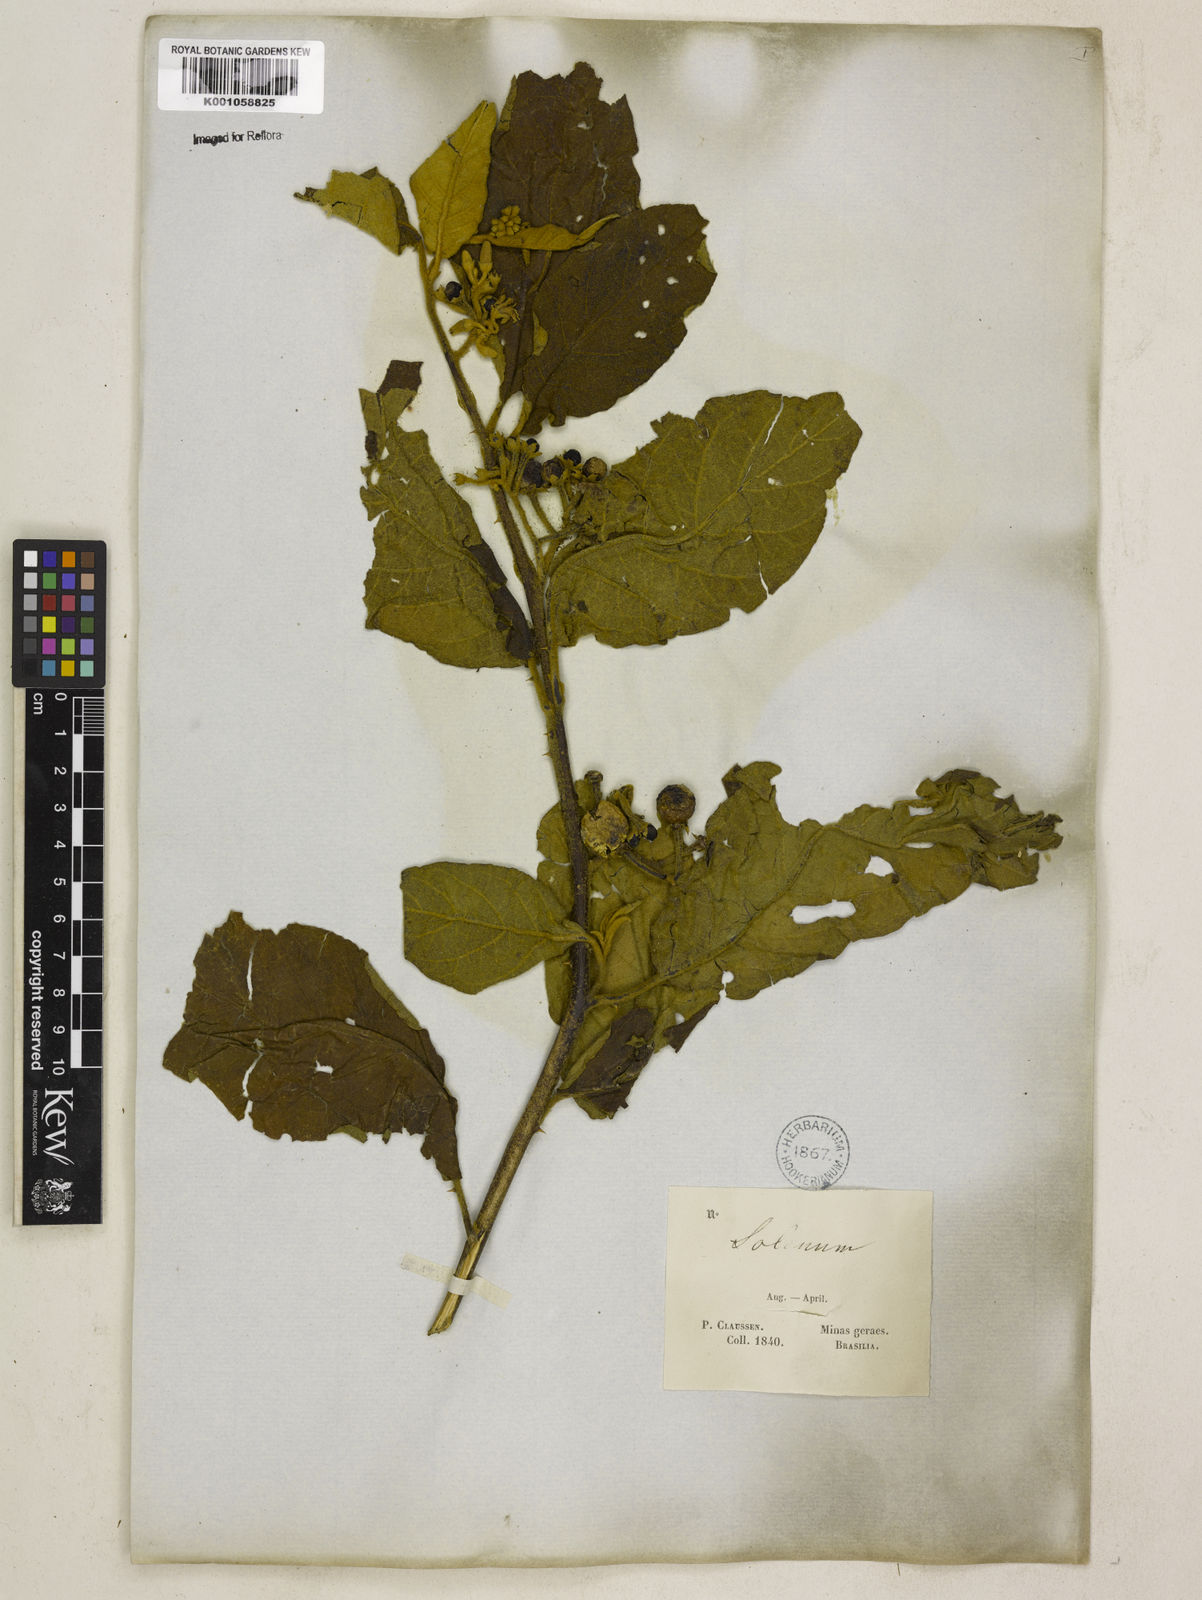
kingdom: Plantae
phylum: Tracheophyta
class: Magnoliopsida
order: Solanales
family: Solanaceae
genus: Solanum
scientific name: Solanum mauritianum
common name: Earleaf nightshade
